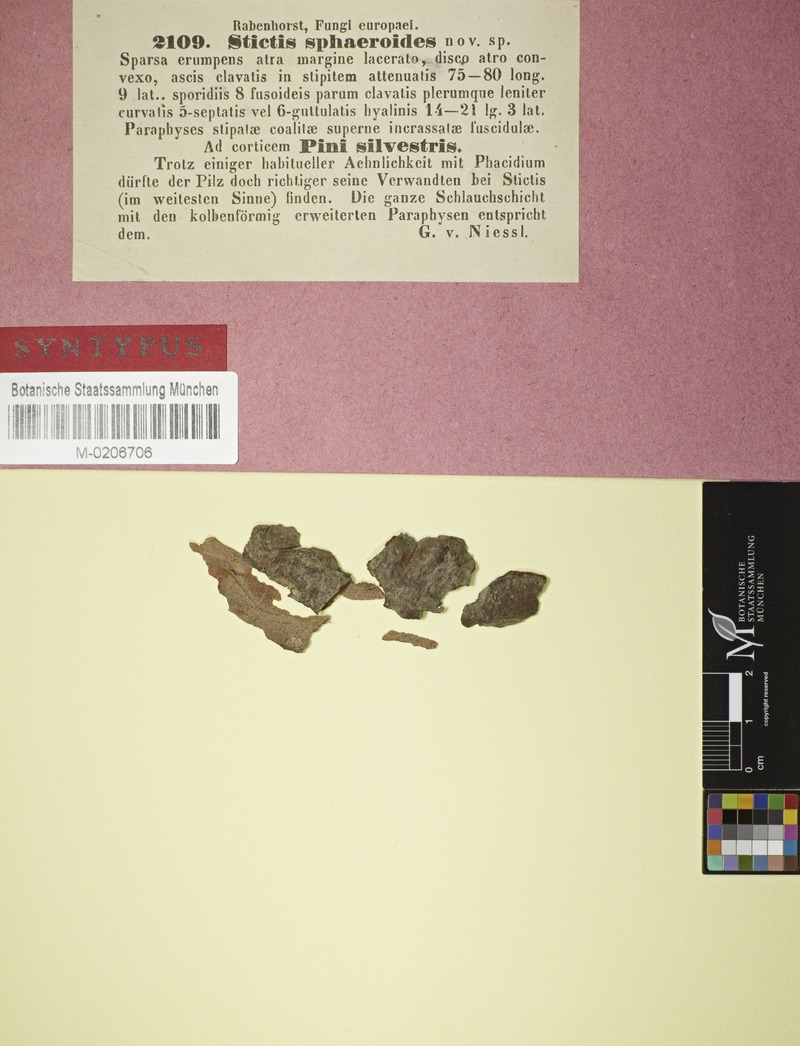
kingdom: Fungi
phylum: Ascomycota
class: Lecanoromycetes
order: Ostropales
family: Stictidaceae
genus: Stictis
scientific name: Stictis
